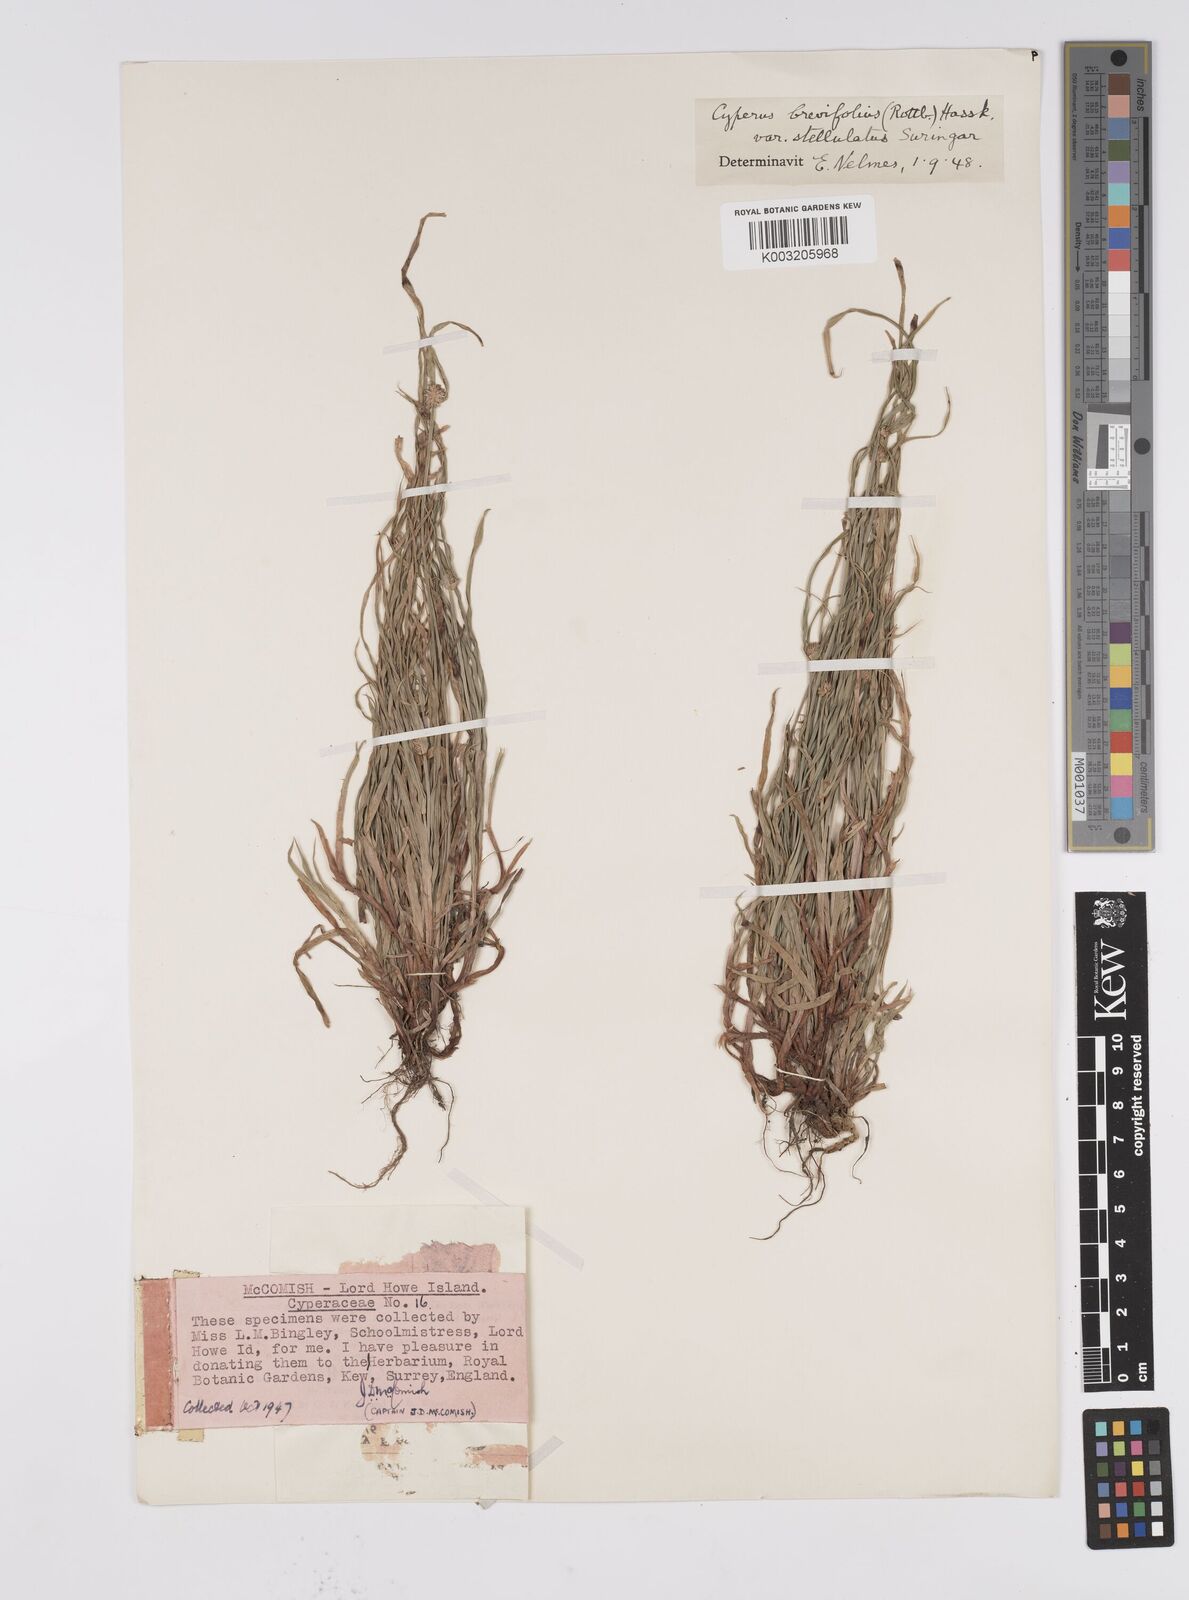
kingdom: Plantae
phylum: Tracheophyta
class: Liliopsida
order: Poales
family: Cyperaceae
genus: Cyperus
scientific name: Cyperus brevifolius
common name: Globe kyllinga
